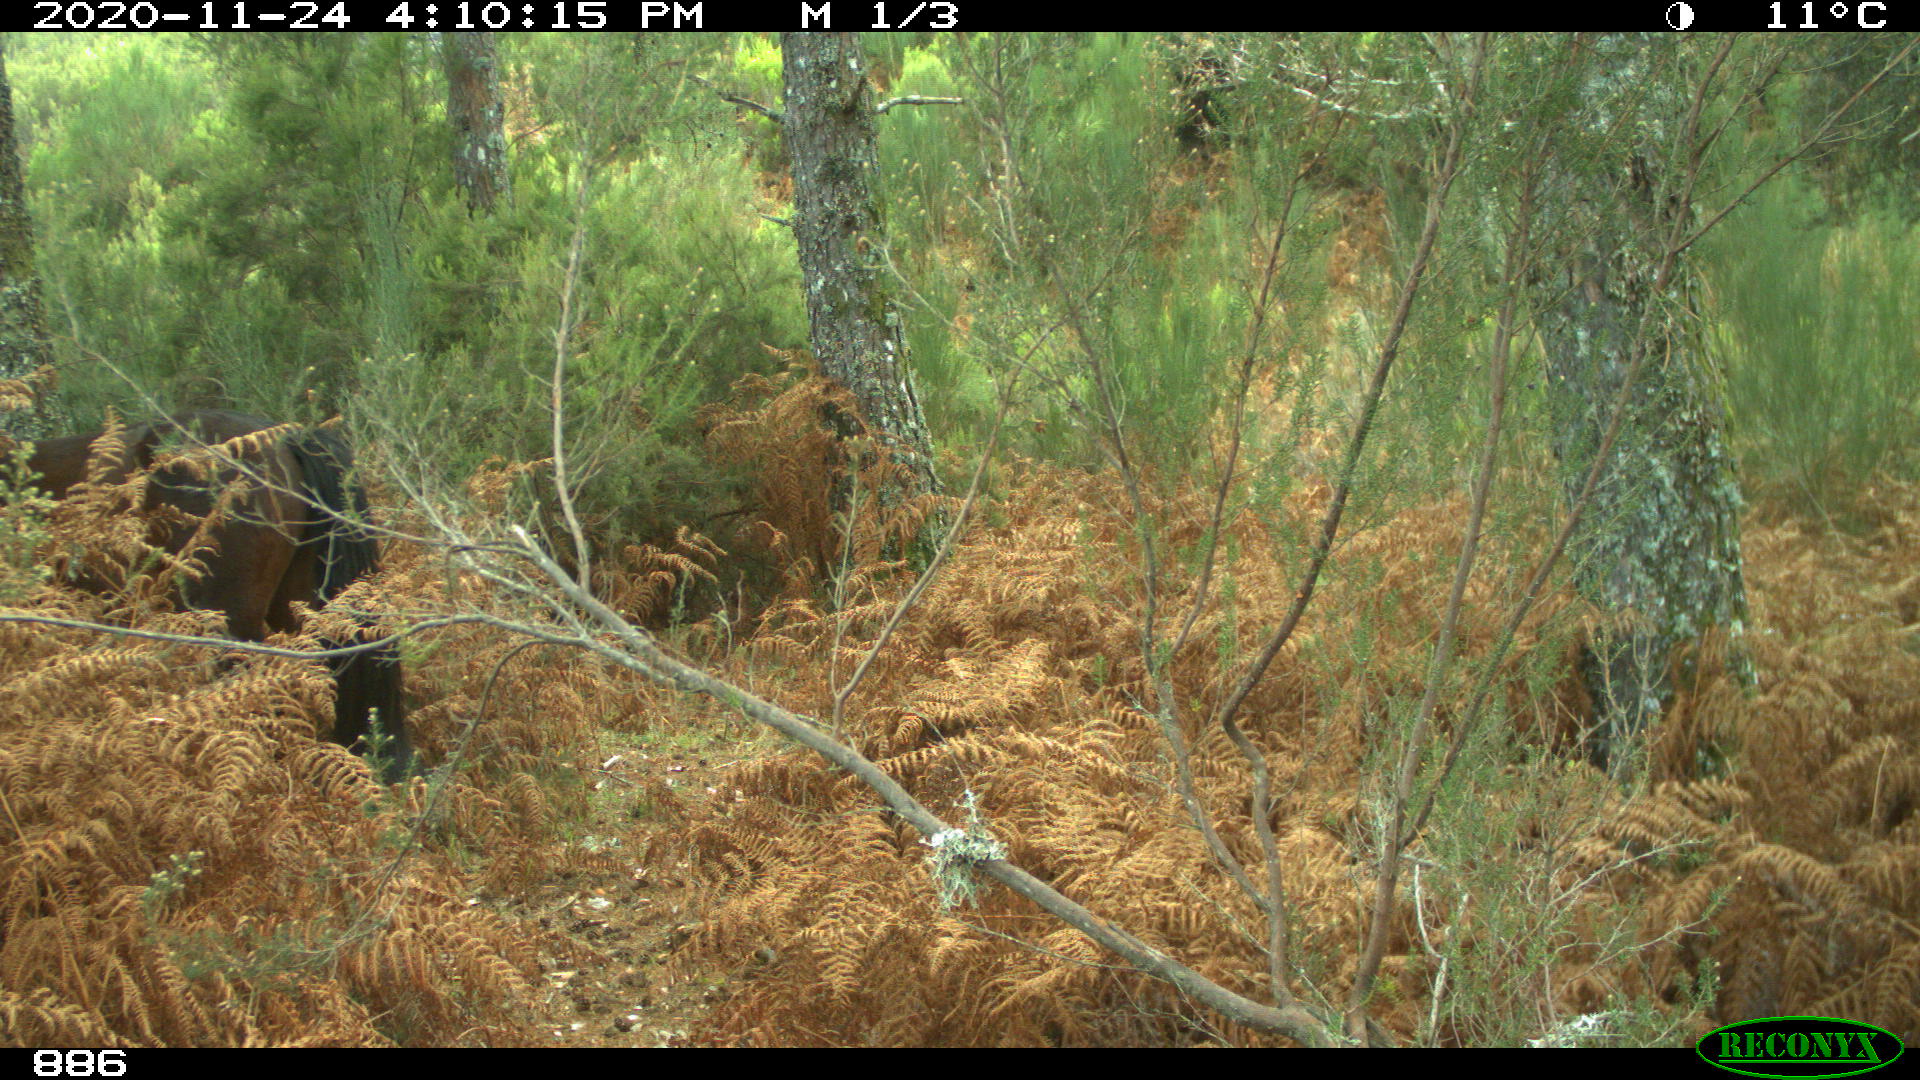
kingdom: Animalia
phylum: Chordata
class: Mammalia
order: Perissodactyla
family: Equidae
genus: Equus
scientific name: Equus caballus
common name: Horse
